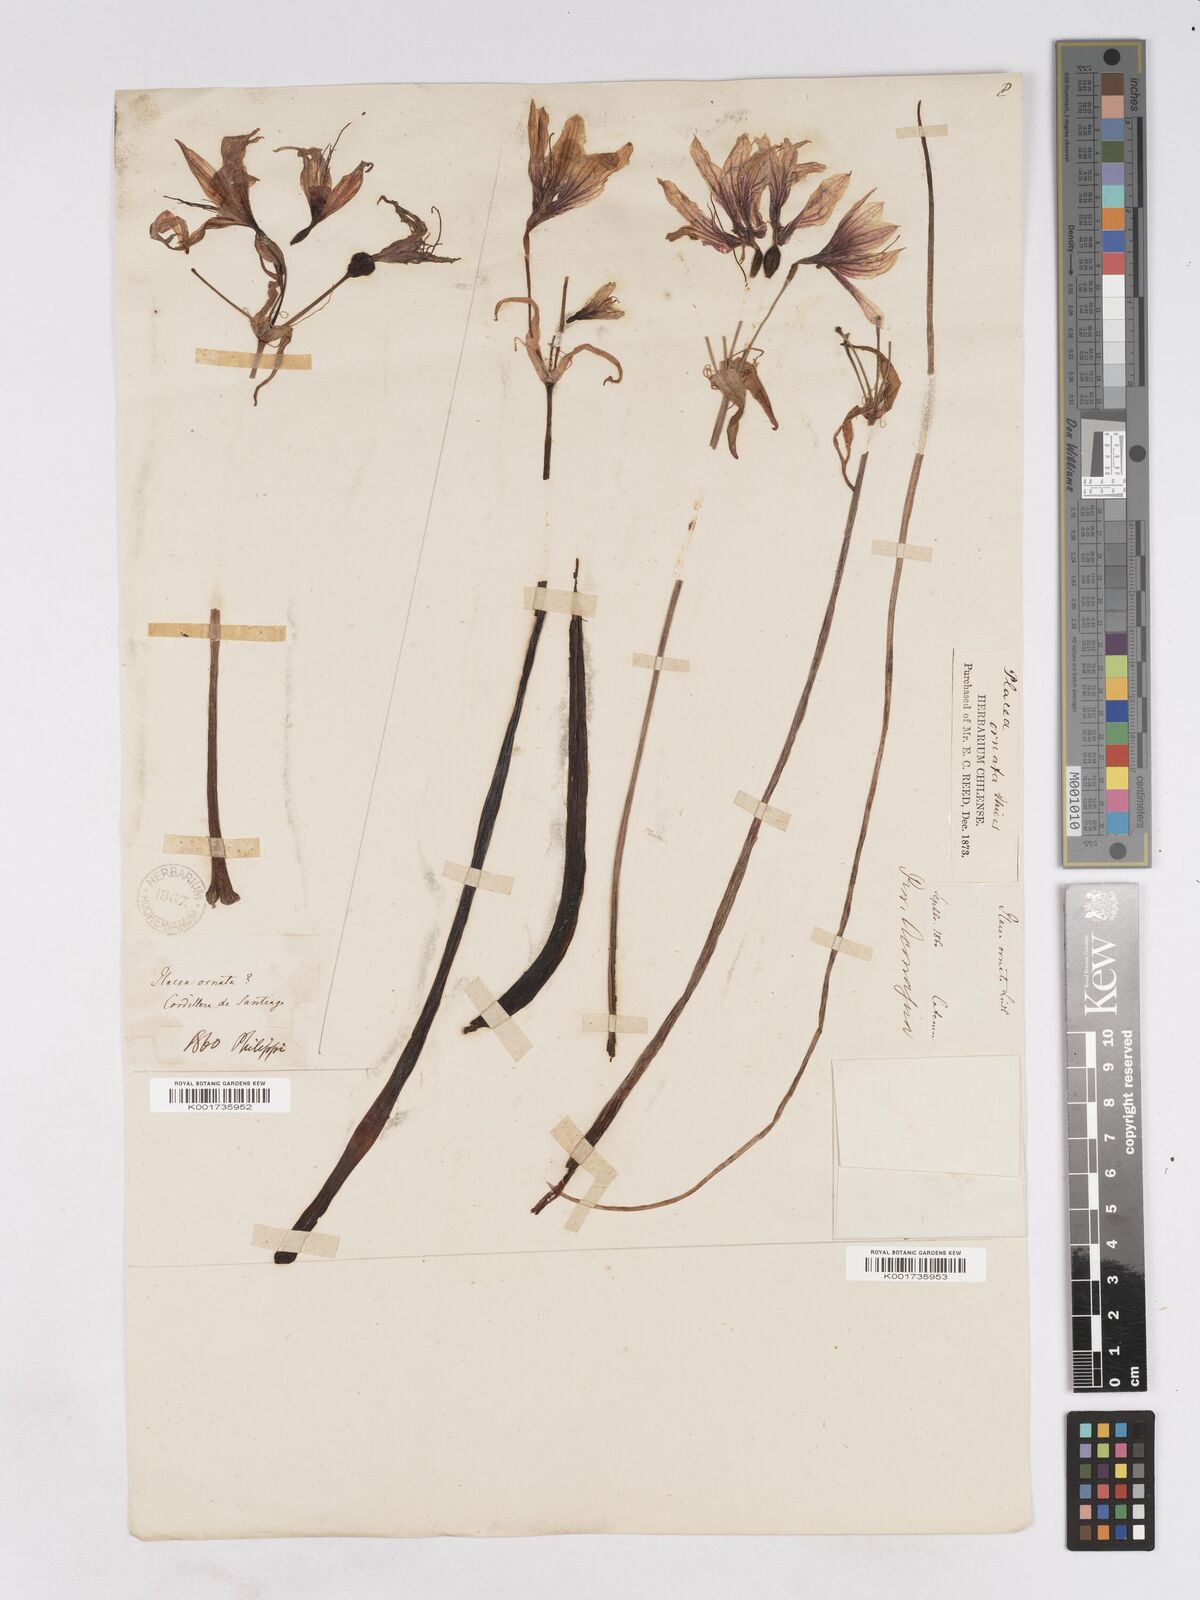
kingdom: Plantae
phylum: Tracheophyta
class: Liliopsida
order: Asparagales
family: Amaryllidaceae
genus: Phycella
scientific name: Phycella ornata
